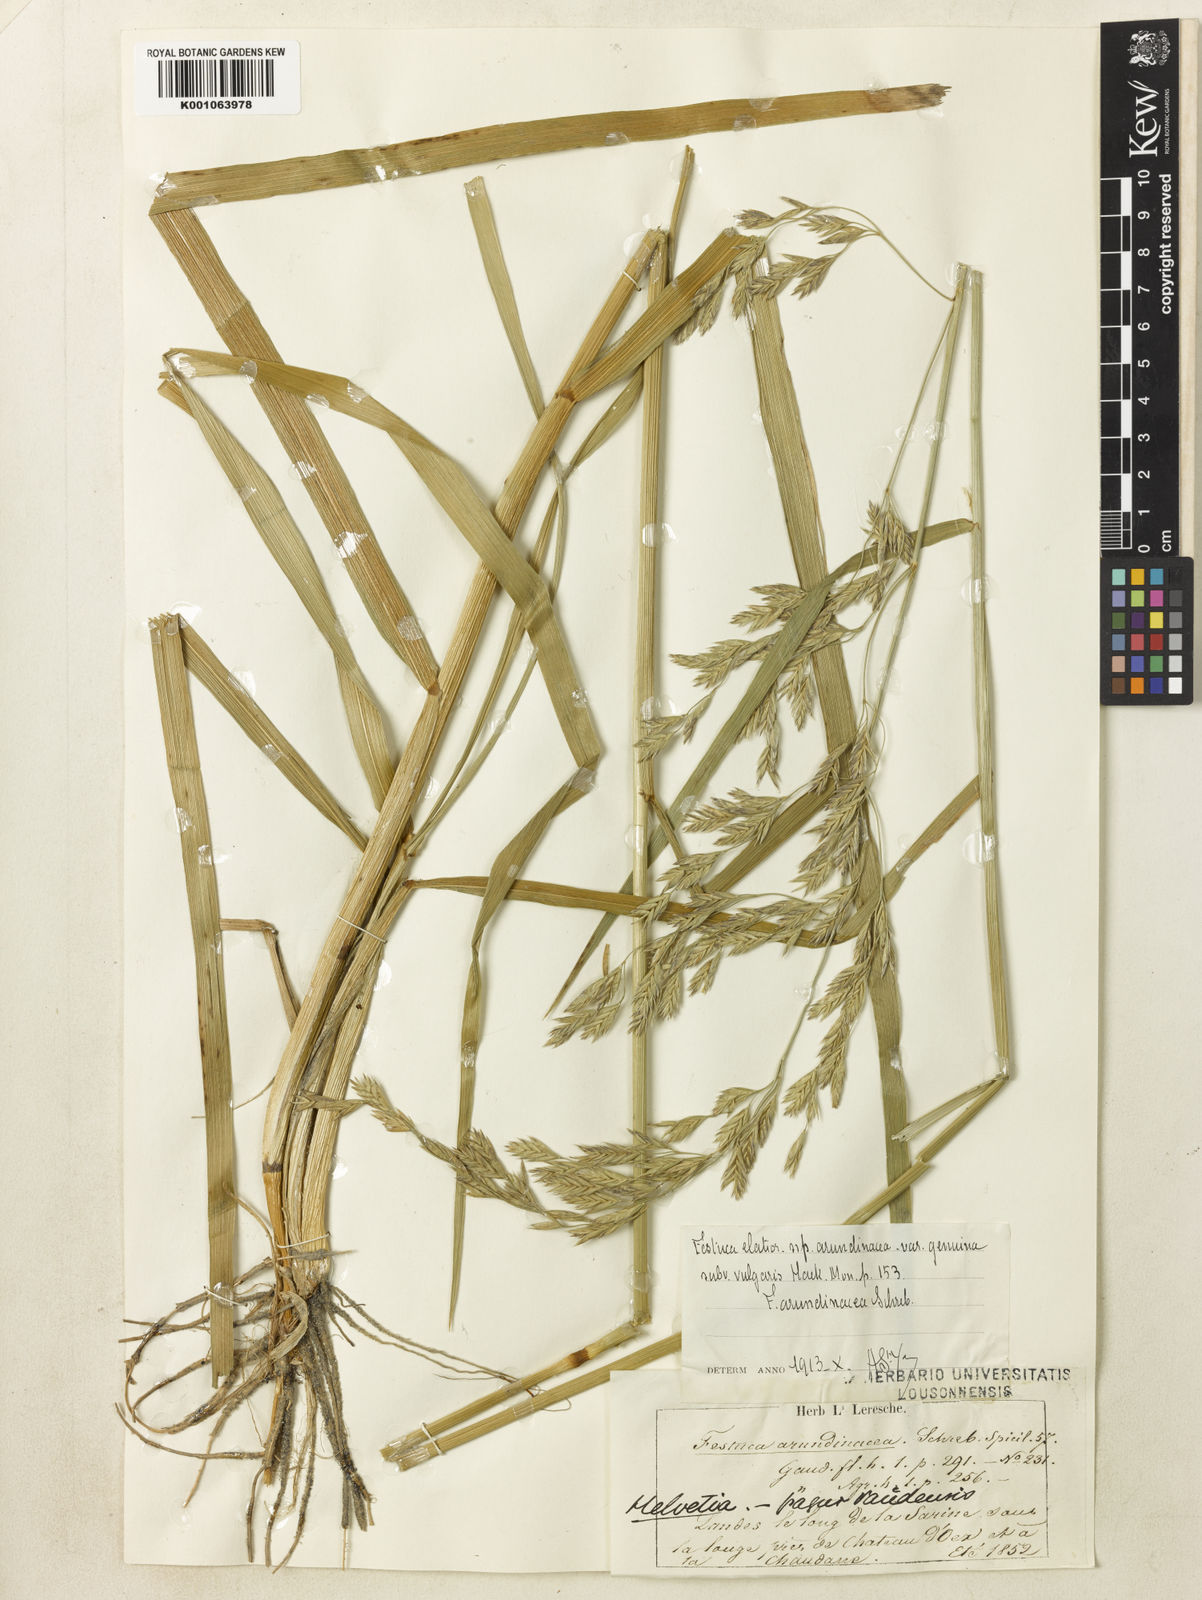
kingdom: Plantae
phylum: Tracheophyta
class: Liliopsida
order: Poales
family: Poaceae
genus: Lolium
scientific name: Lolium arundinaceum
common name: Reed fescue
